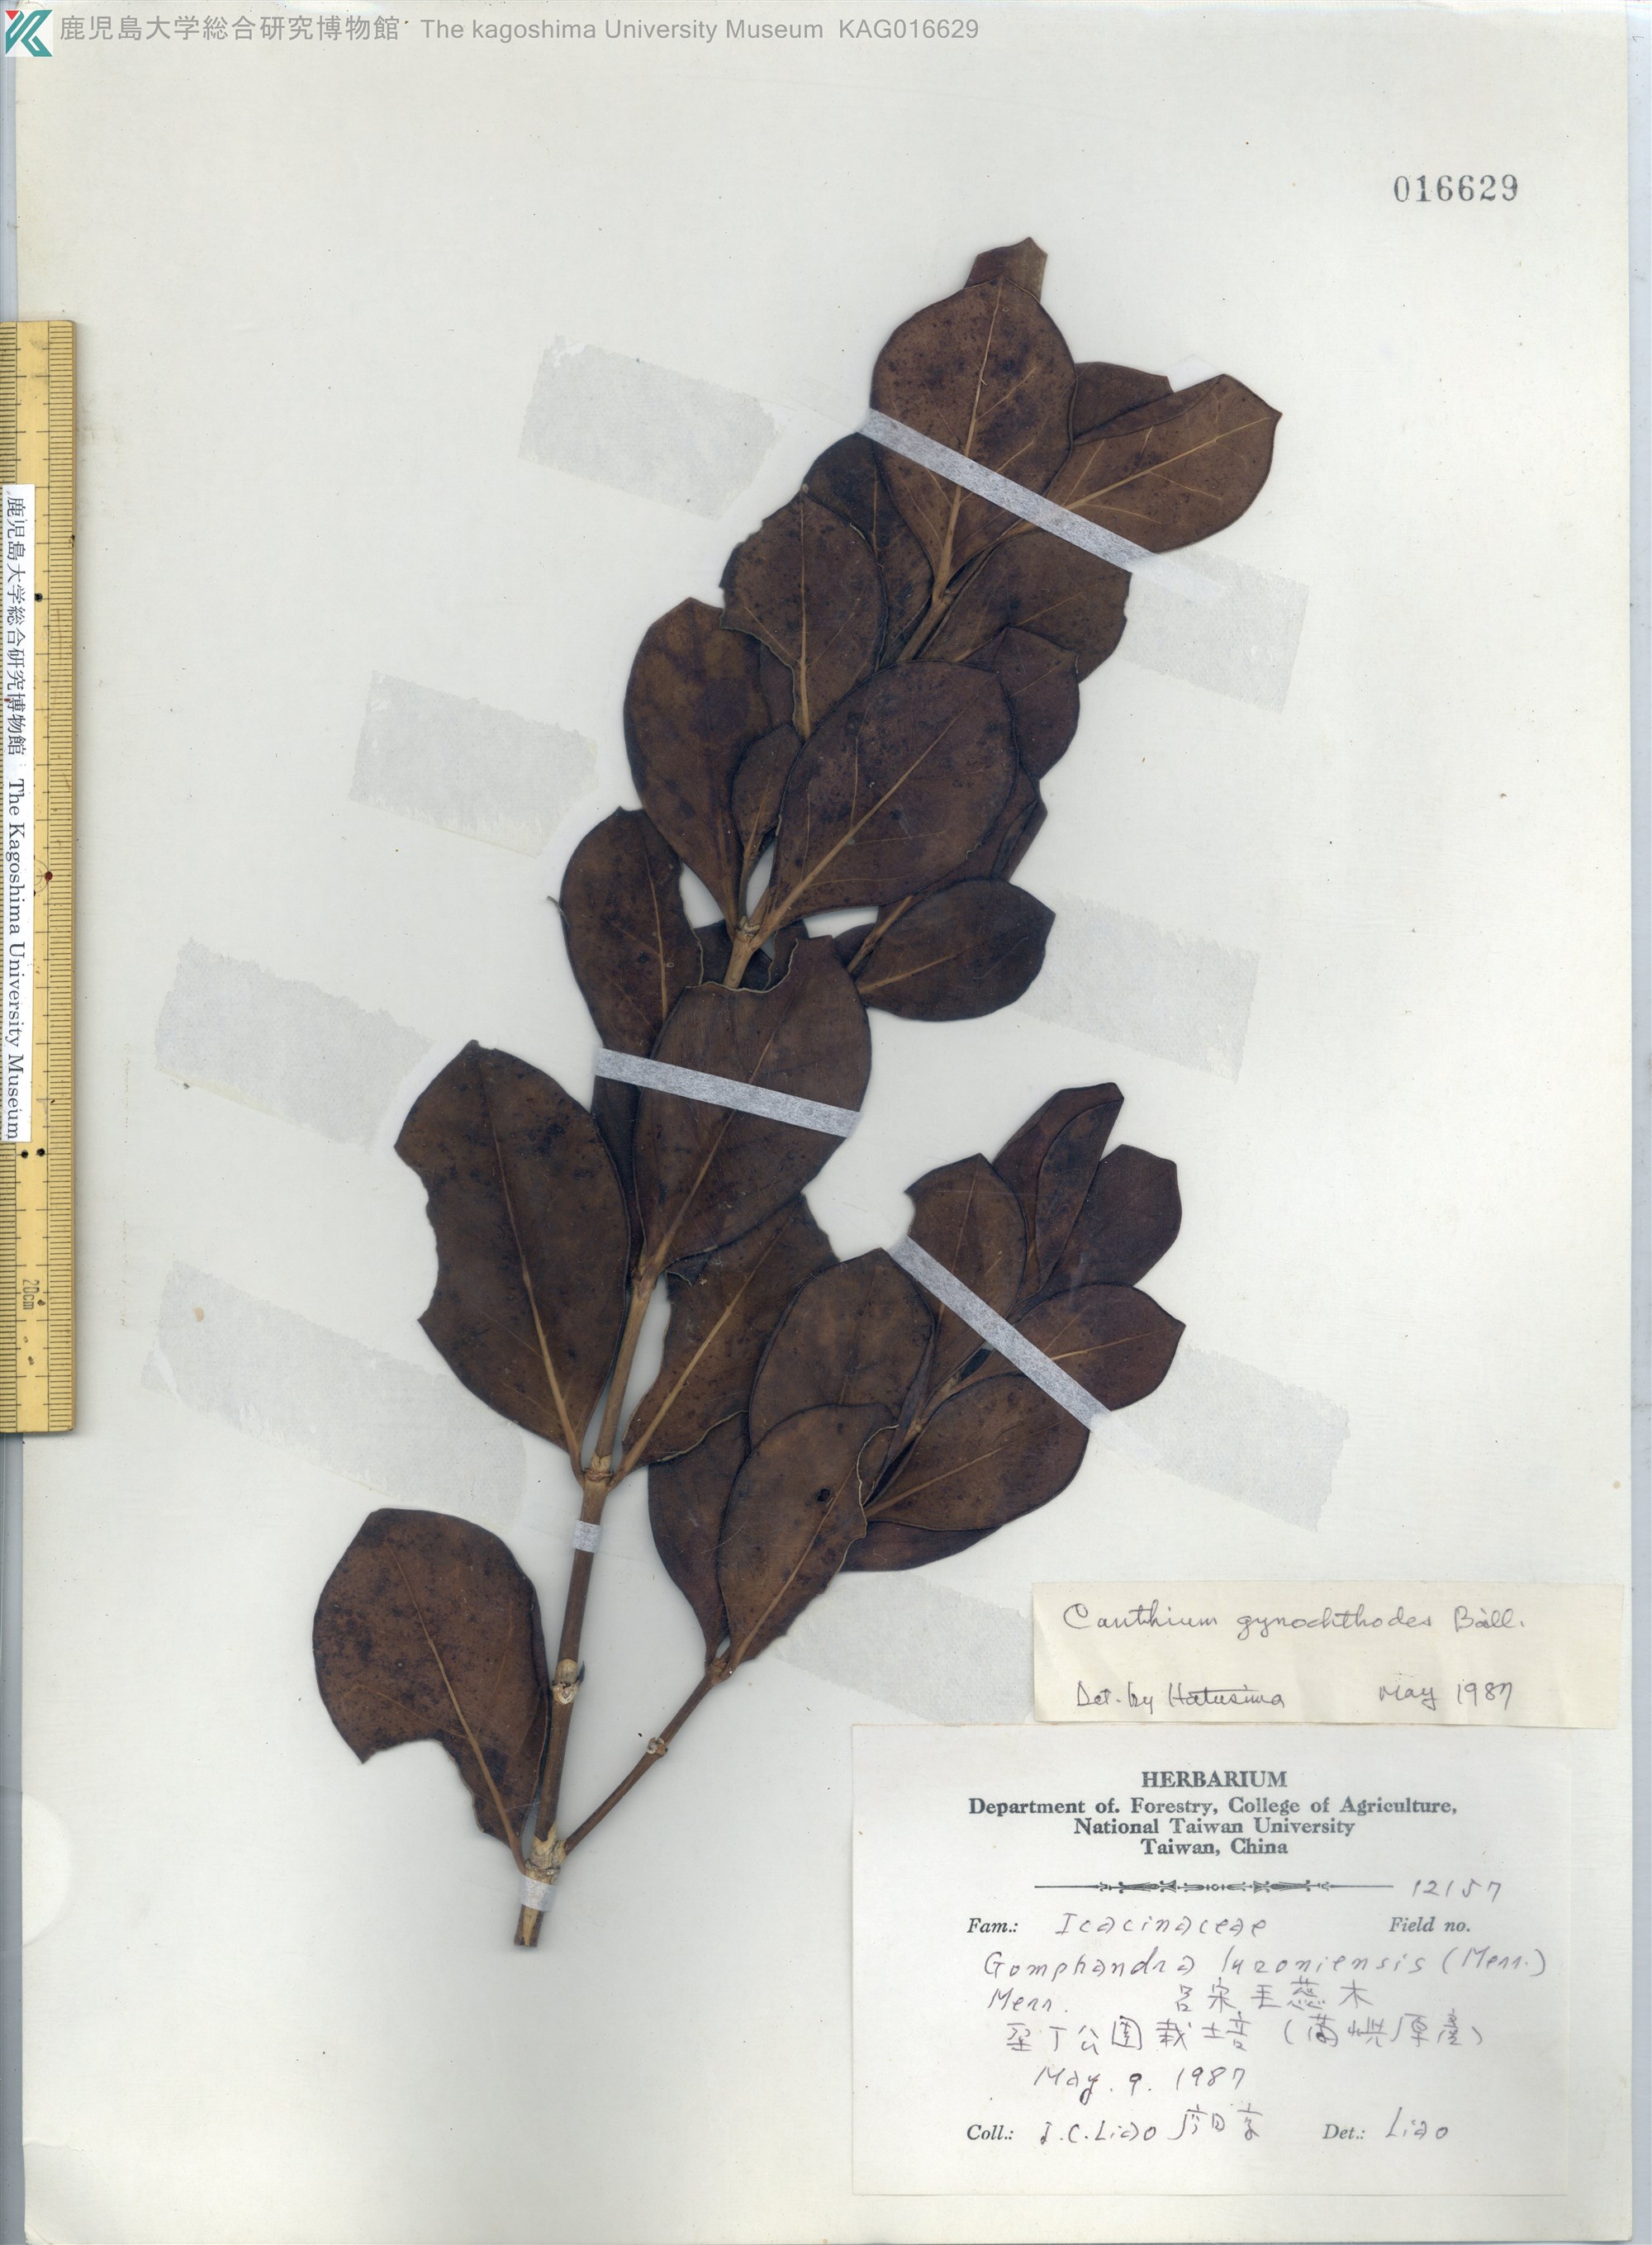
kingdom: Plantae
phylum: Tracheophyta
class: Magnoliopsida
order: Cardiopteridales
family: Stemonuraceae
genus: Gomphandra
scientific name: Gomphandra
